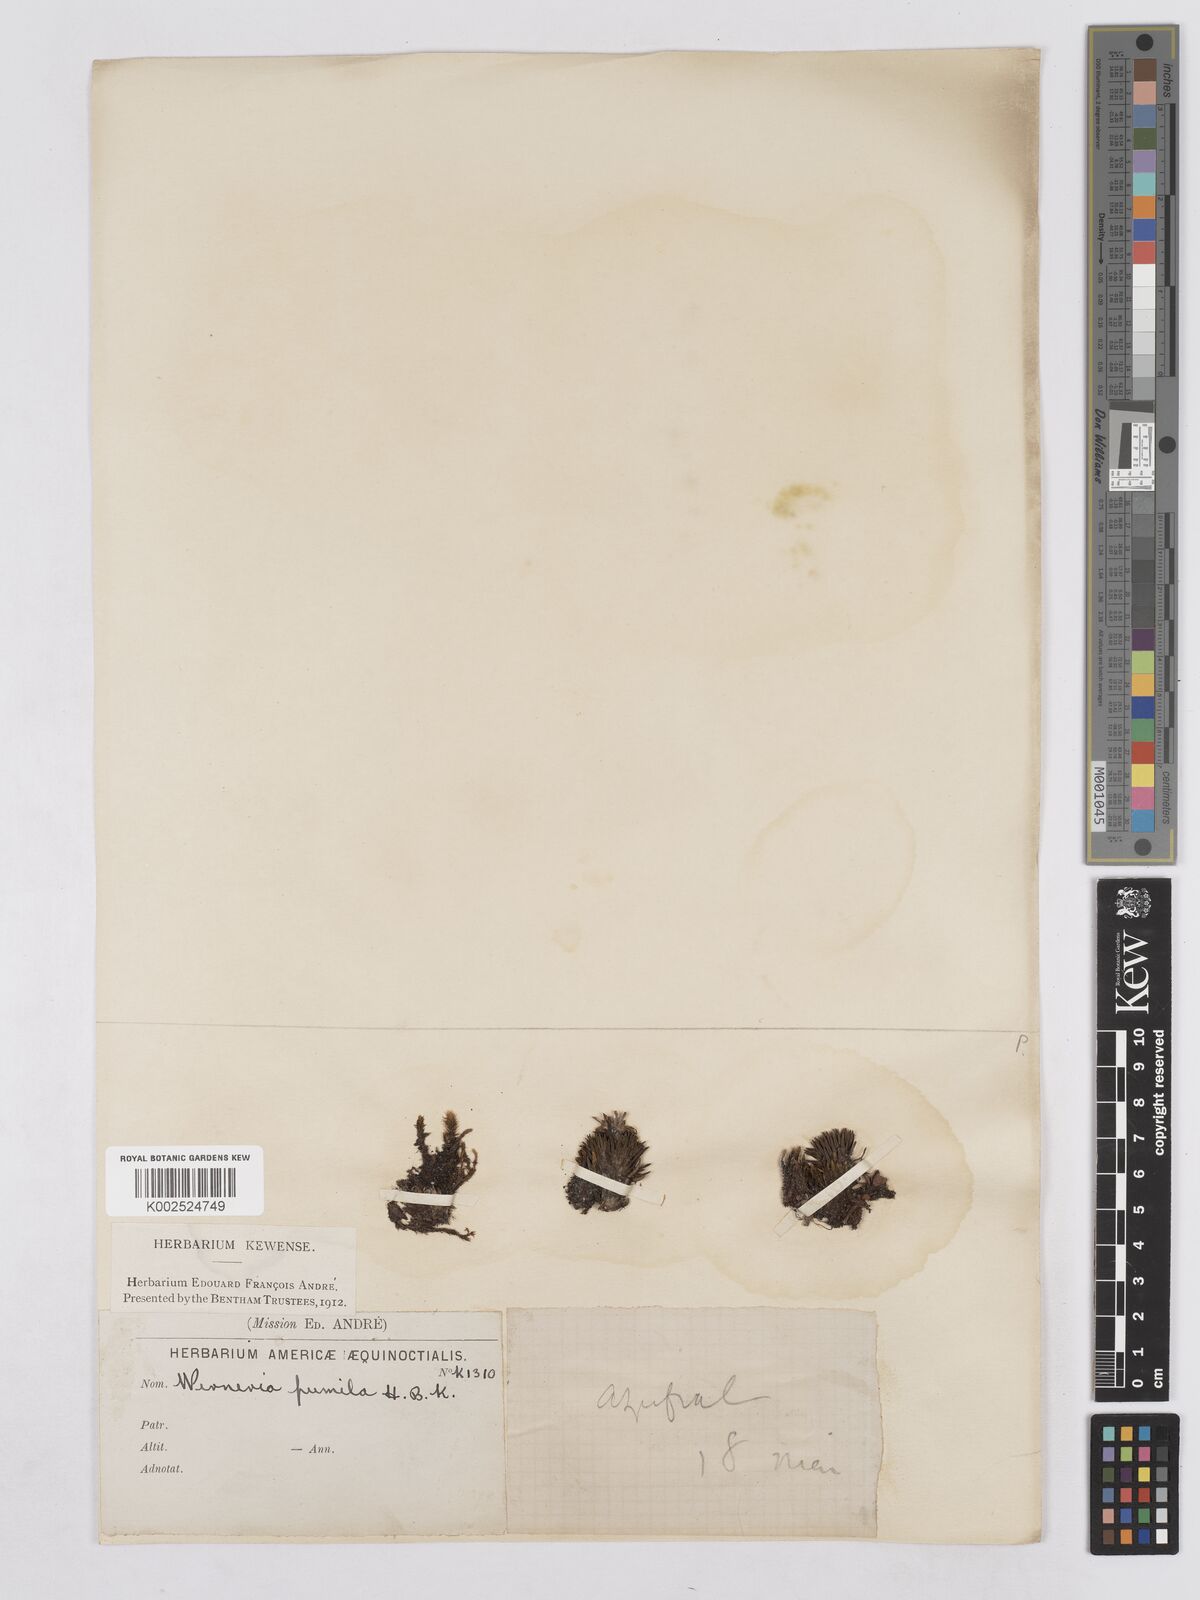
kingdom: Plantae
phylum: Tracheophyta
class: Magnoliopsida
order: Asterales
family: Asteraceae
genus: Rockhausenia
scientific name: Rockhausenia pumila
